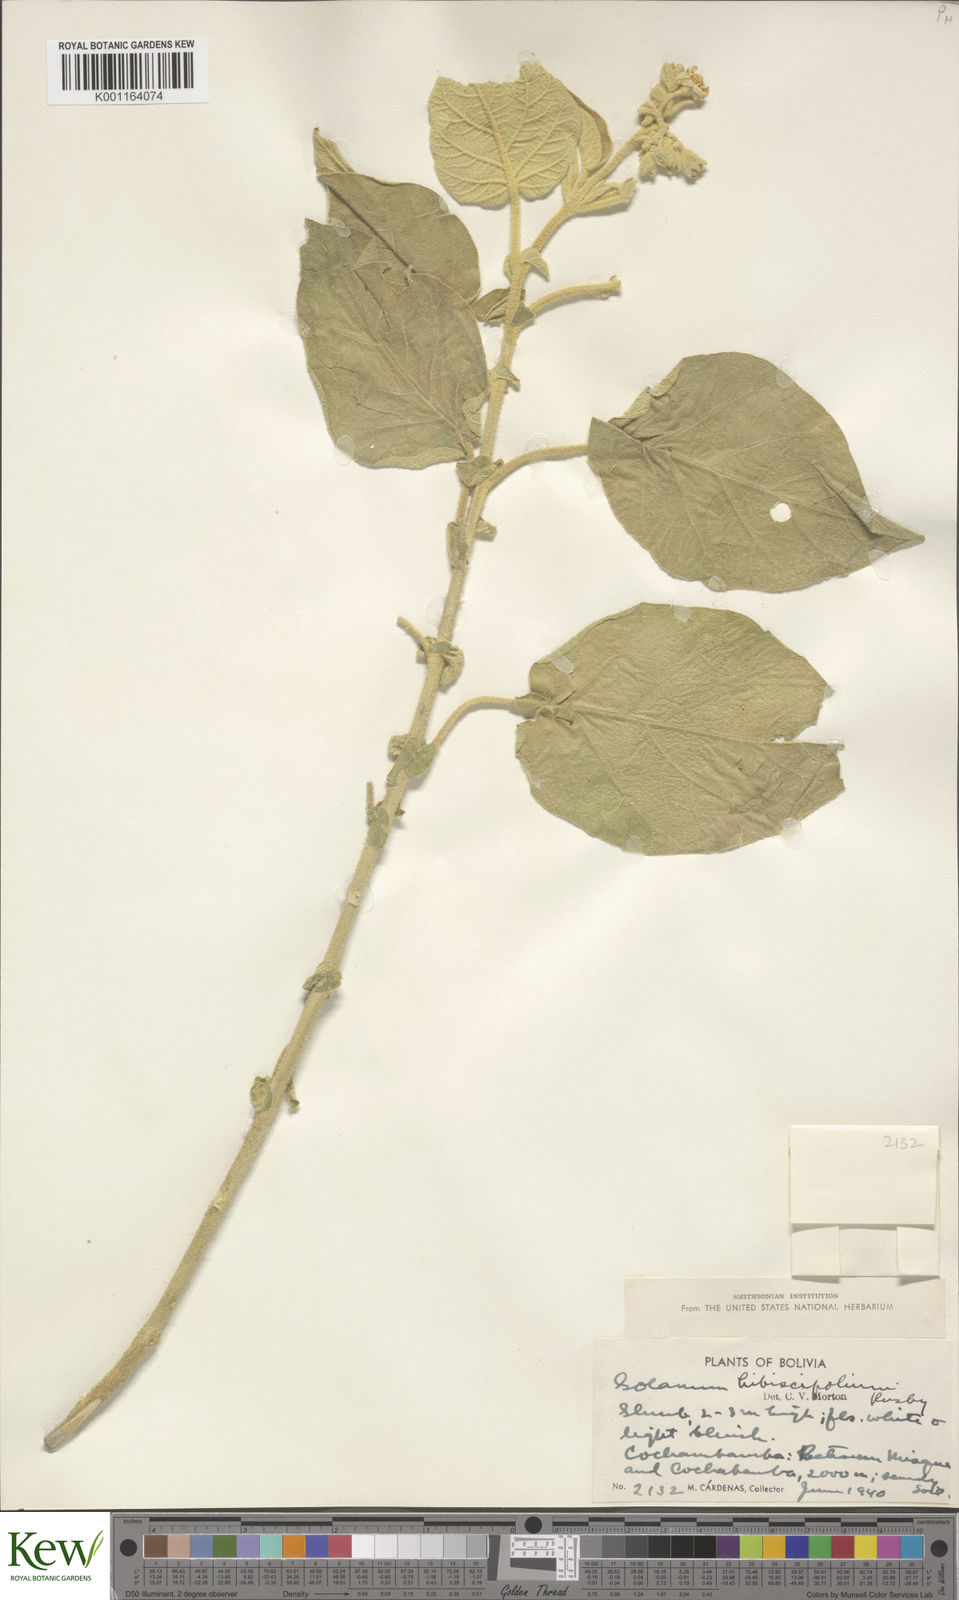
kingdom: Plantae
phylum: Tracheophyta
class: Magnoliopsida
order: Solanales
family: Solanaceae
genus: Solanum
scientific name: Solanum abutiloides
